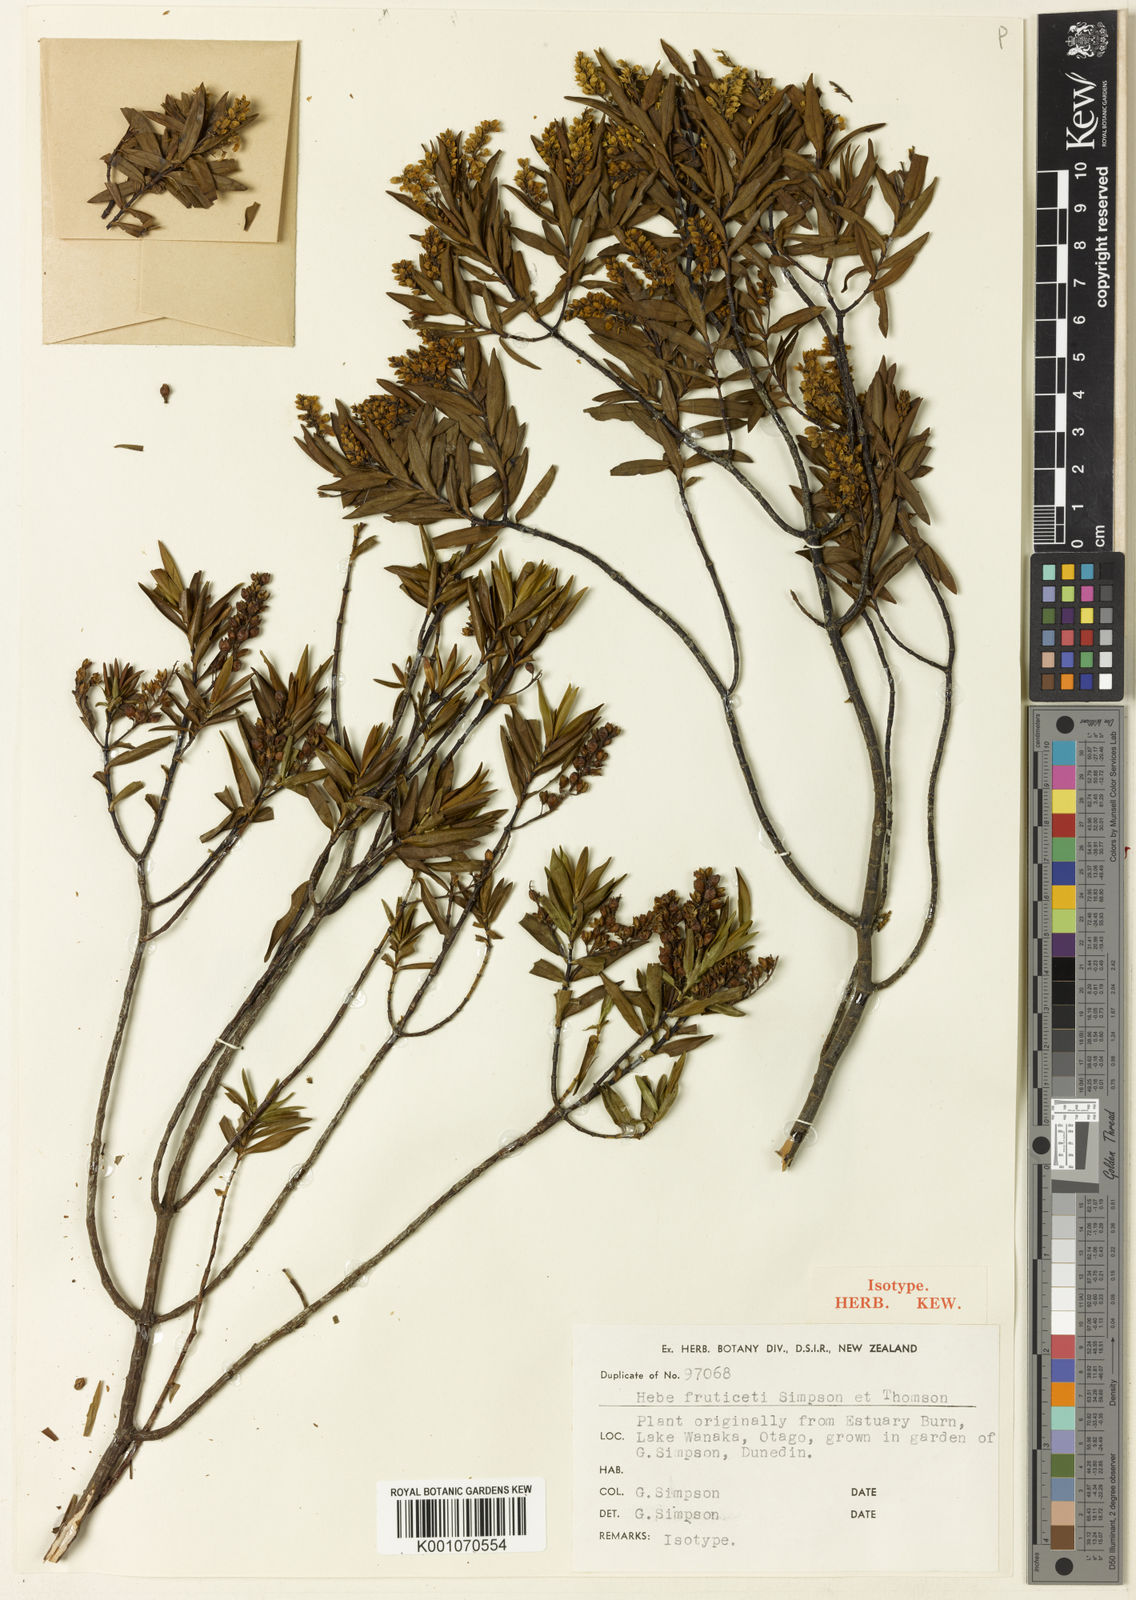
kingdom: Plantae
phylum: Tracheophyta
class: Magnoliopsida
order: Lamiales
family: Plantaginaceae
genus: Veronica
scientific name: Veronica urvilleana
